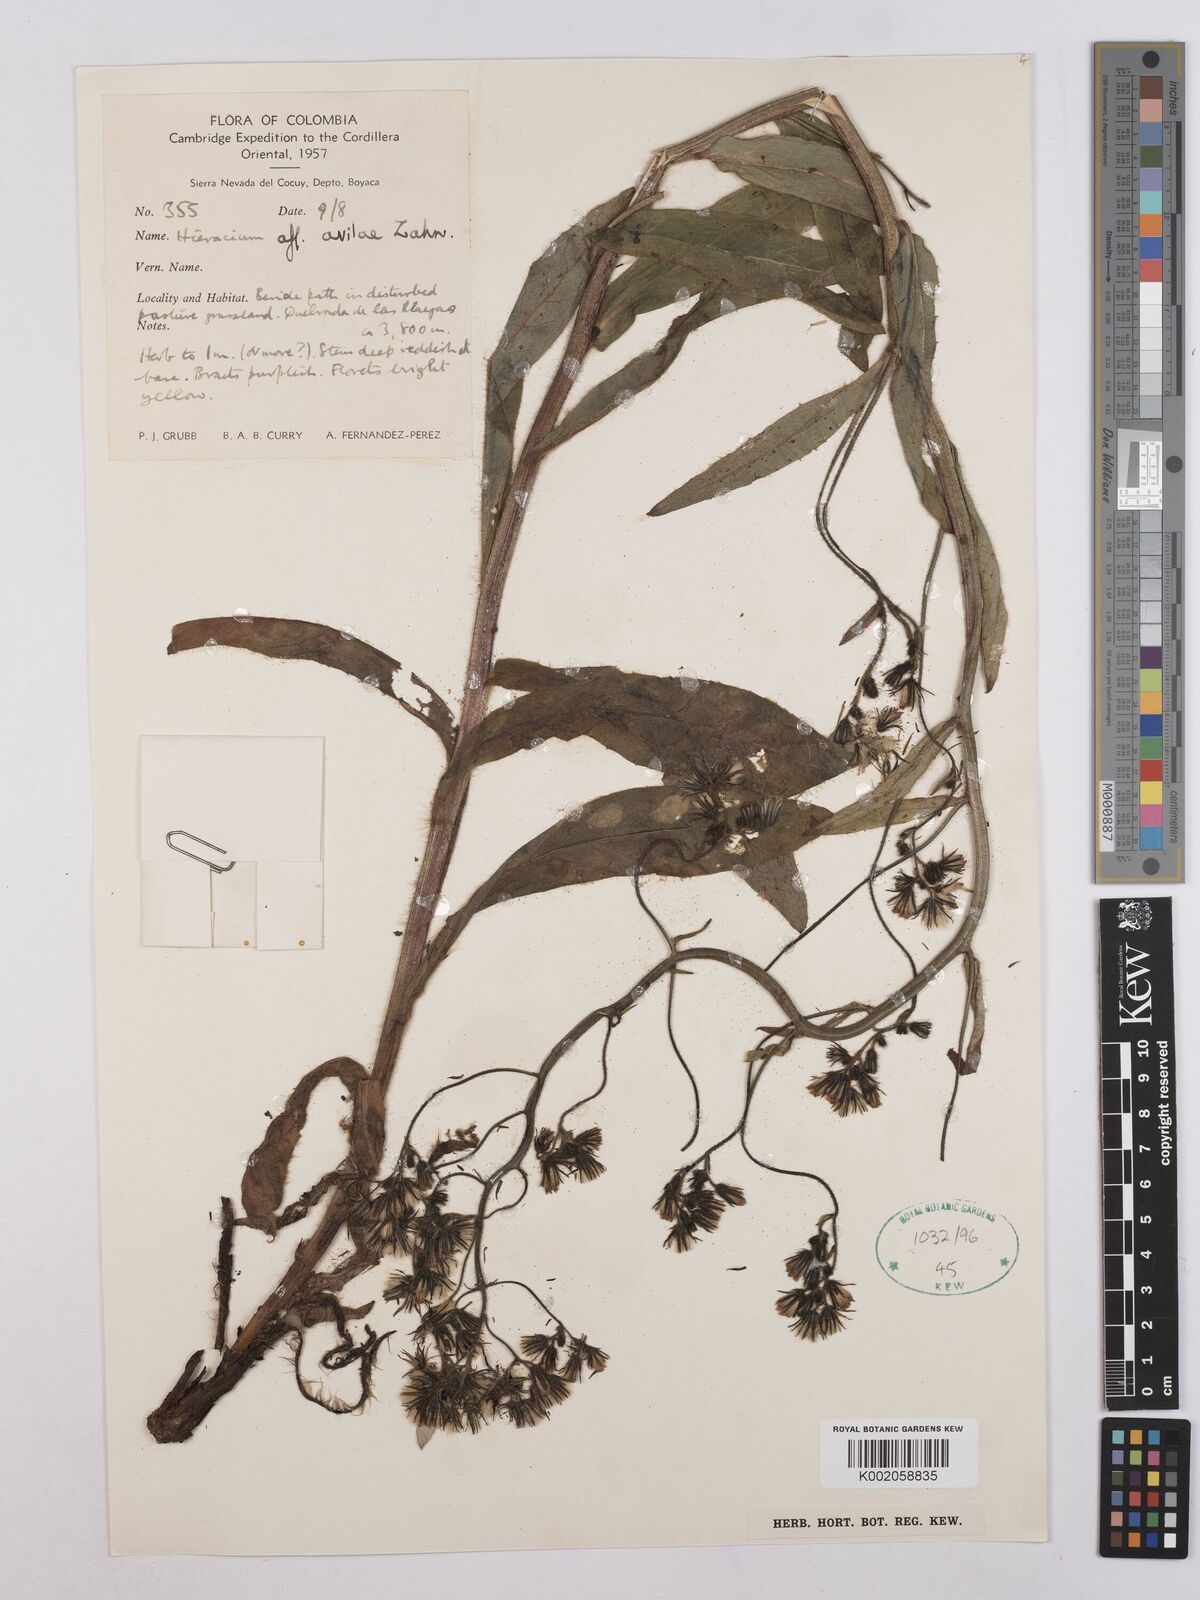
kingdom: Plantae
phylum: Tracheophyta
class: Magnoliopsida
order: Asterales
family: Asteraceae
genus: Hieracium
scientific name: Hieracium avilae
